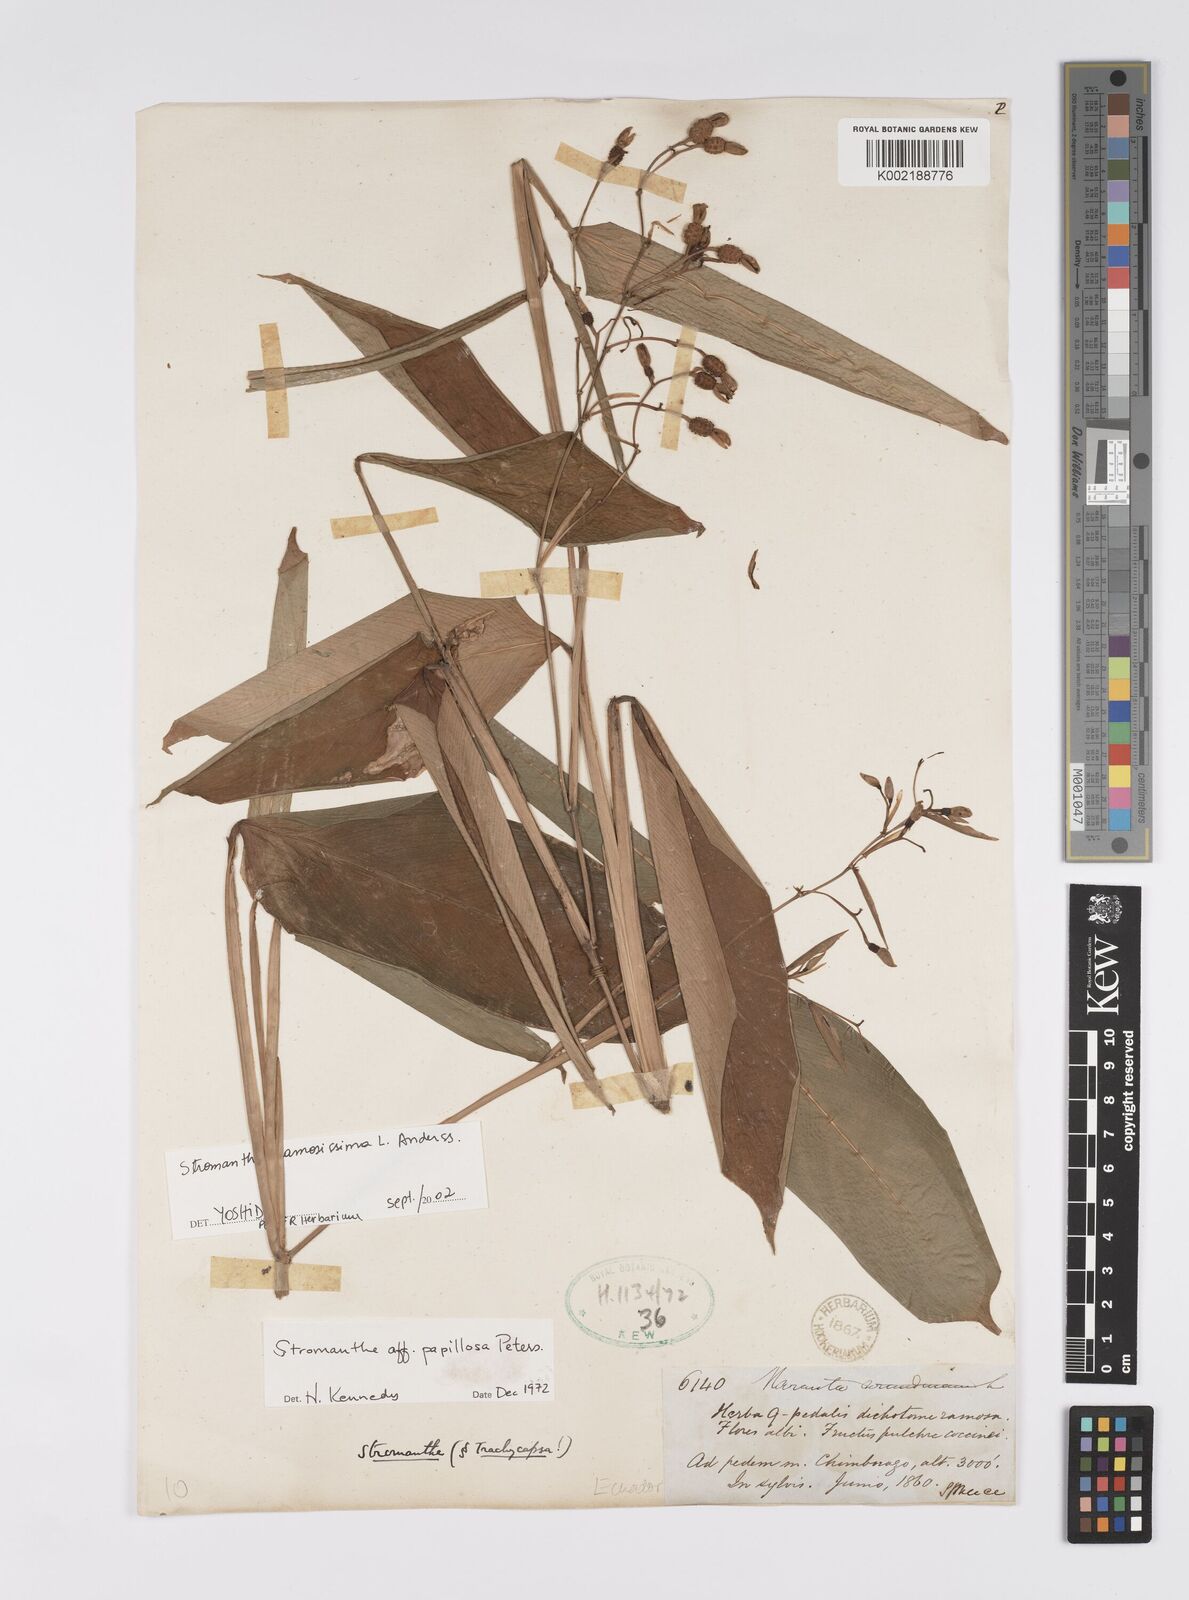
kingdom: Plantae
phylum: Tracheophyta
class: Liliopsida
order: Zingiberales
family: Marantaceae
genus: Stromanthe
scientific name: Stromanthe papillosa
